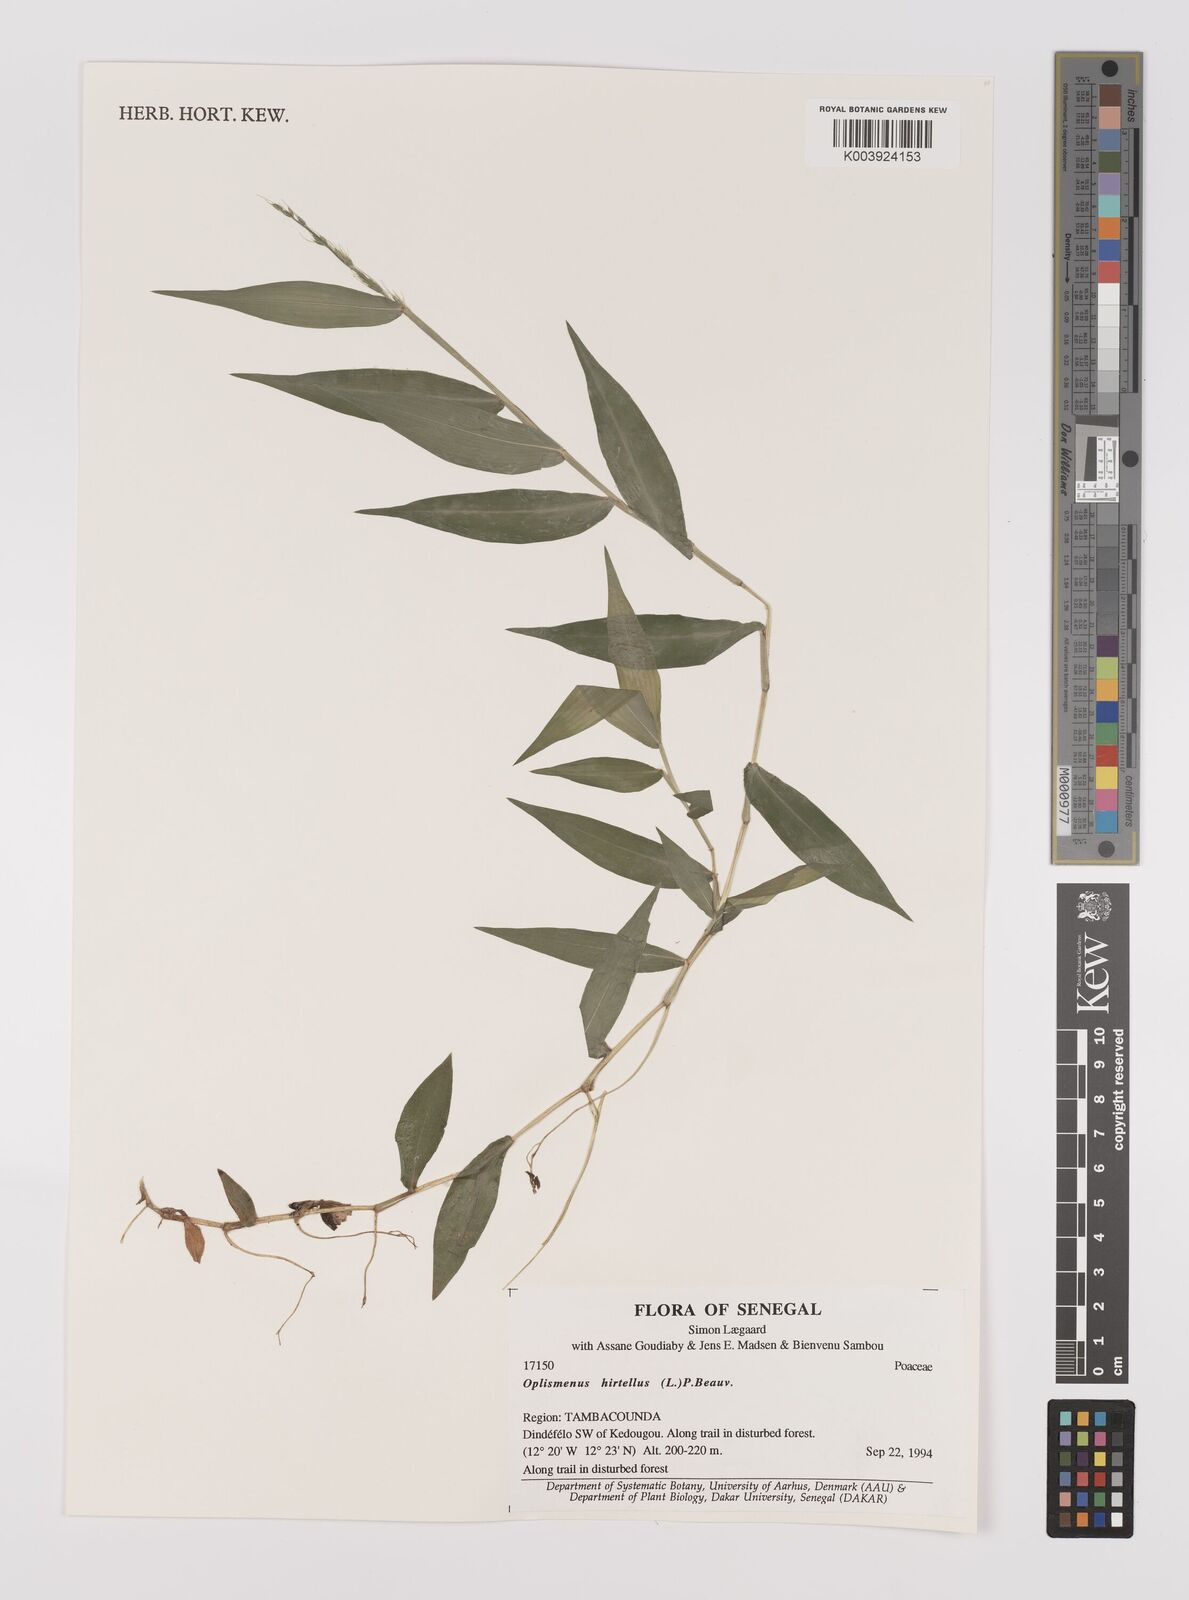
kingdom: Plantae
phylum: Tracheophyta
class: Liliopsida
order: Poales
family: Poaceae
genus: Oplismenus
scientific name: Oplismenus hirtellus
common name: Basketgrass
